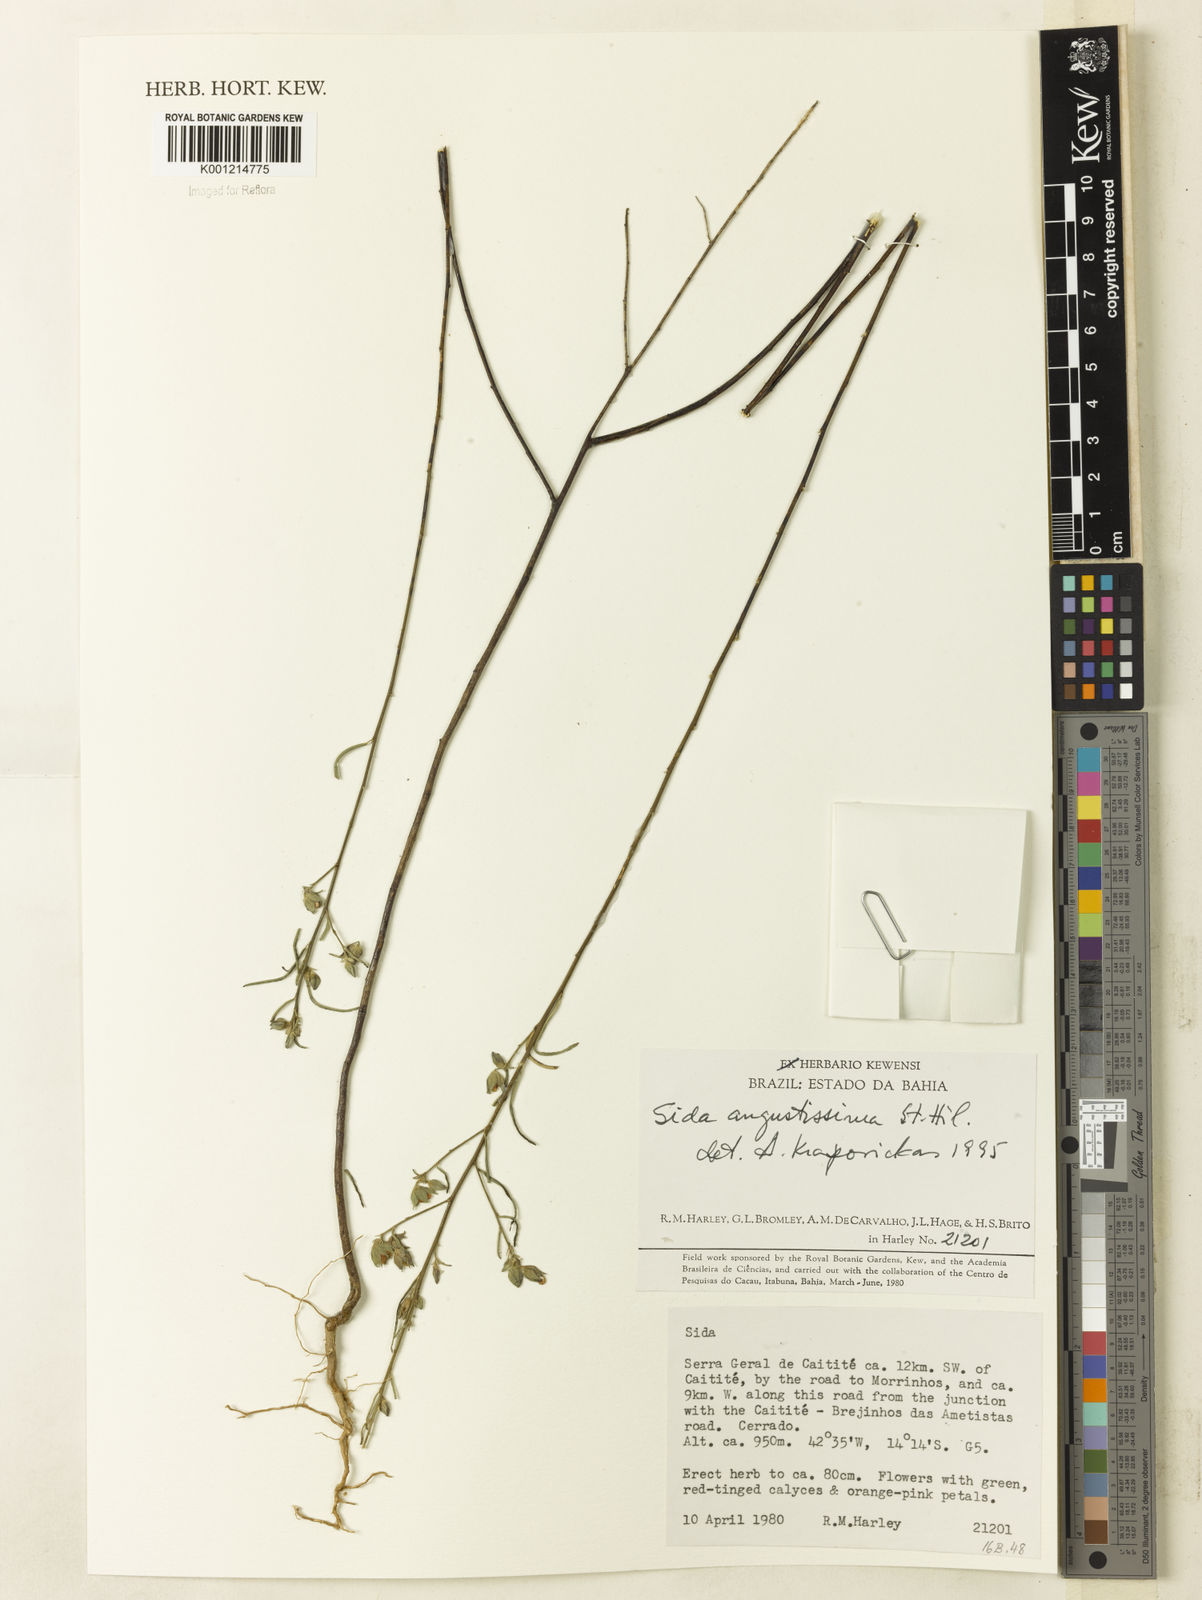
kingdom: Plantae
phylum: Tracheophyta
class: Magnoliopsida
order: Malvales
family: Malvaceae
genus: Sida
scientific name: Sida angustissima
